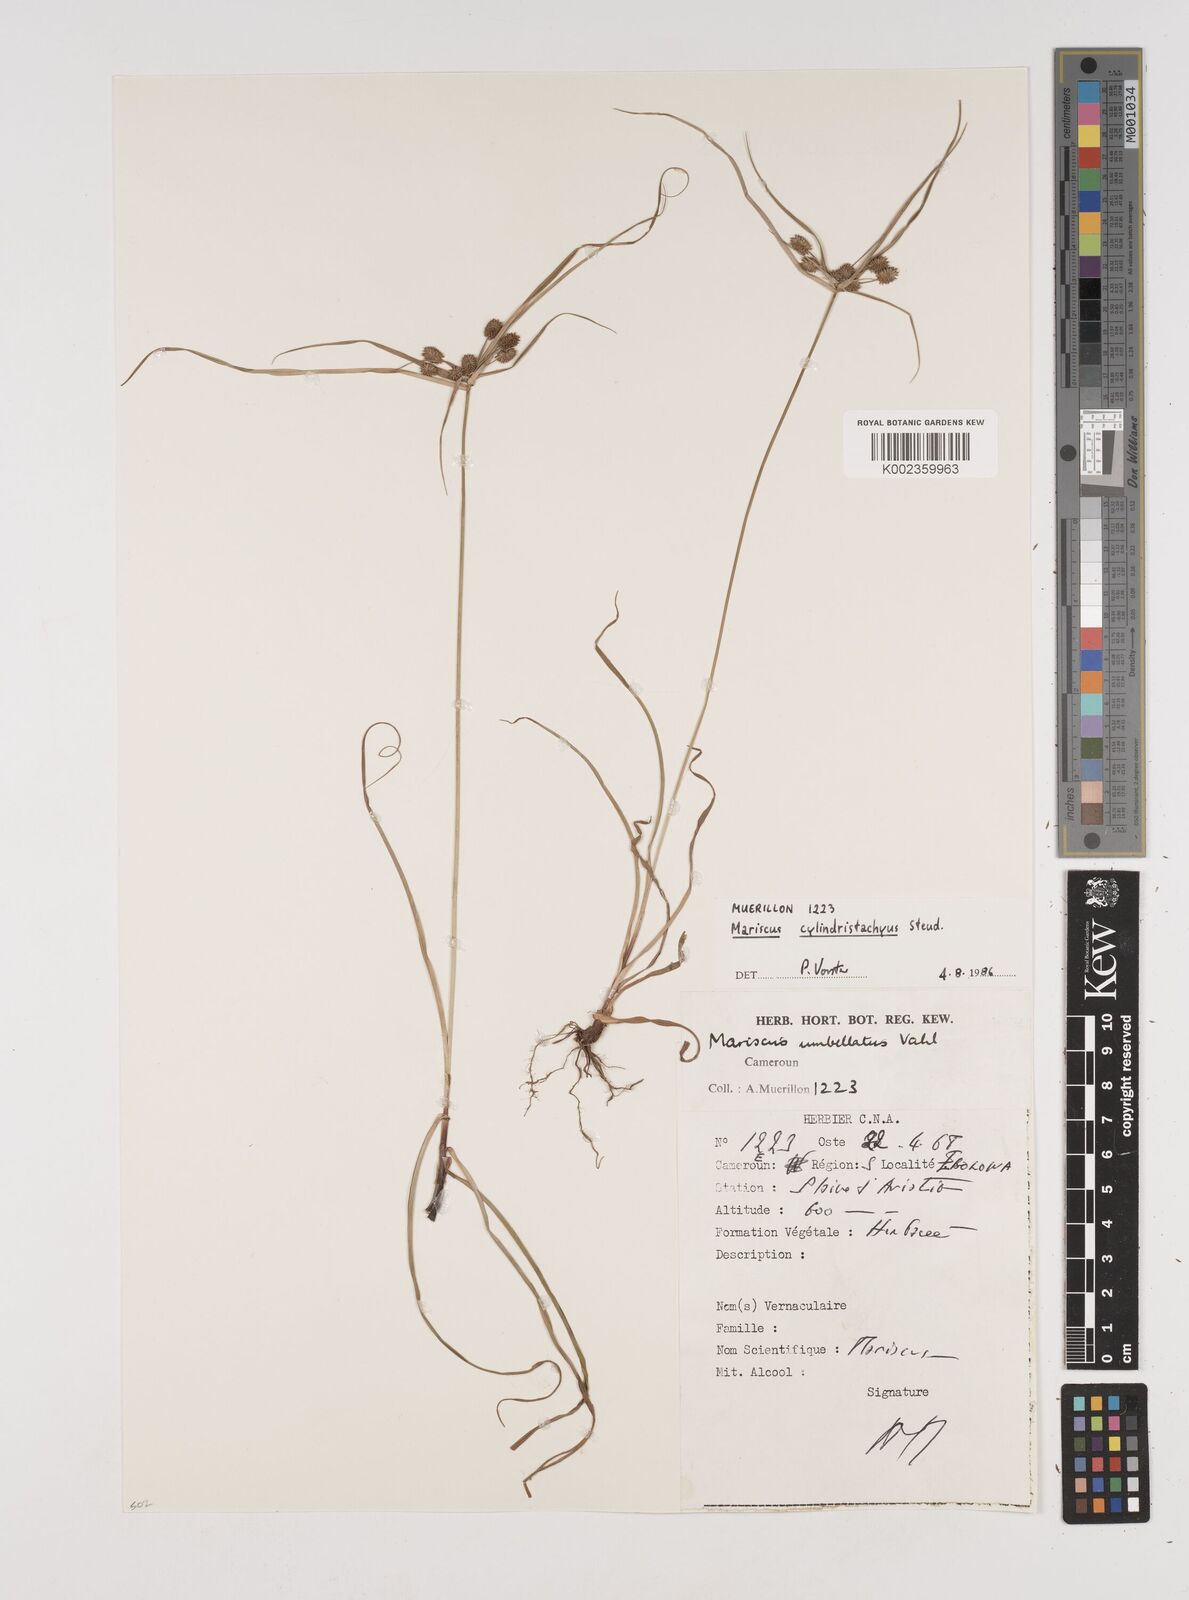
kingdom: Plantae
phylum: Tracheophyta
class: Liliopsida
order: Poales
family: Cyperaceae
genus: Cyperus
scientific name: Cyperus cyperoides
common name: Pacific island flat sedge
